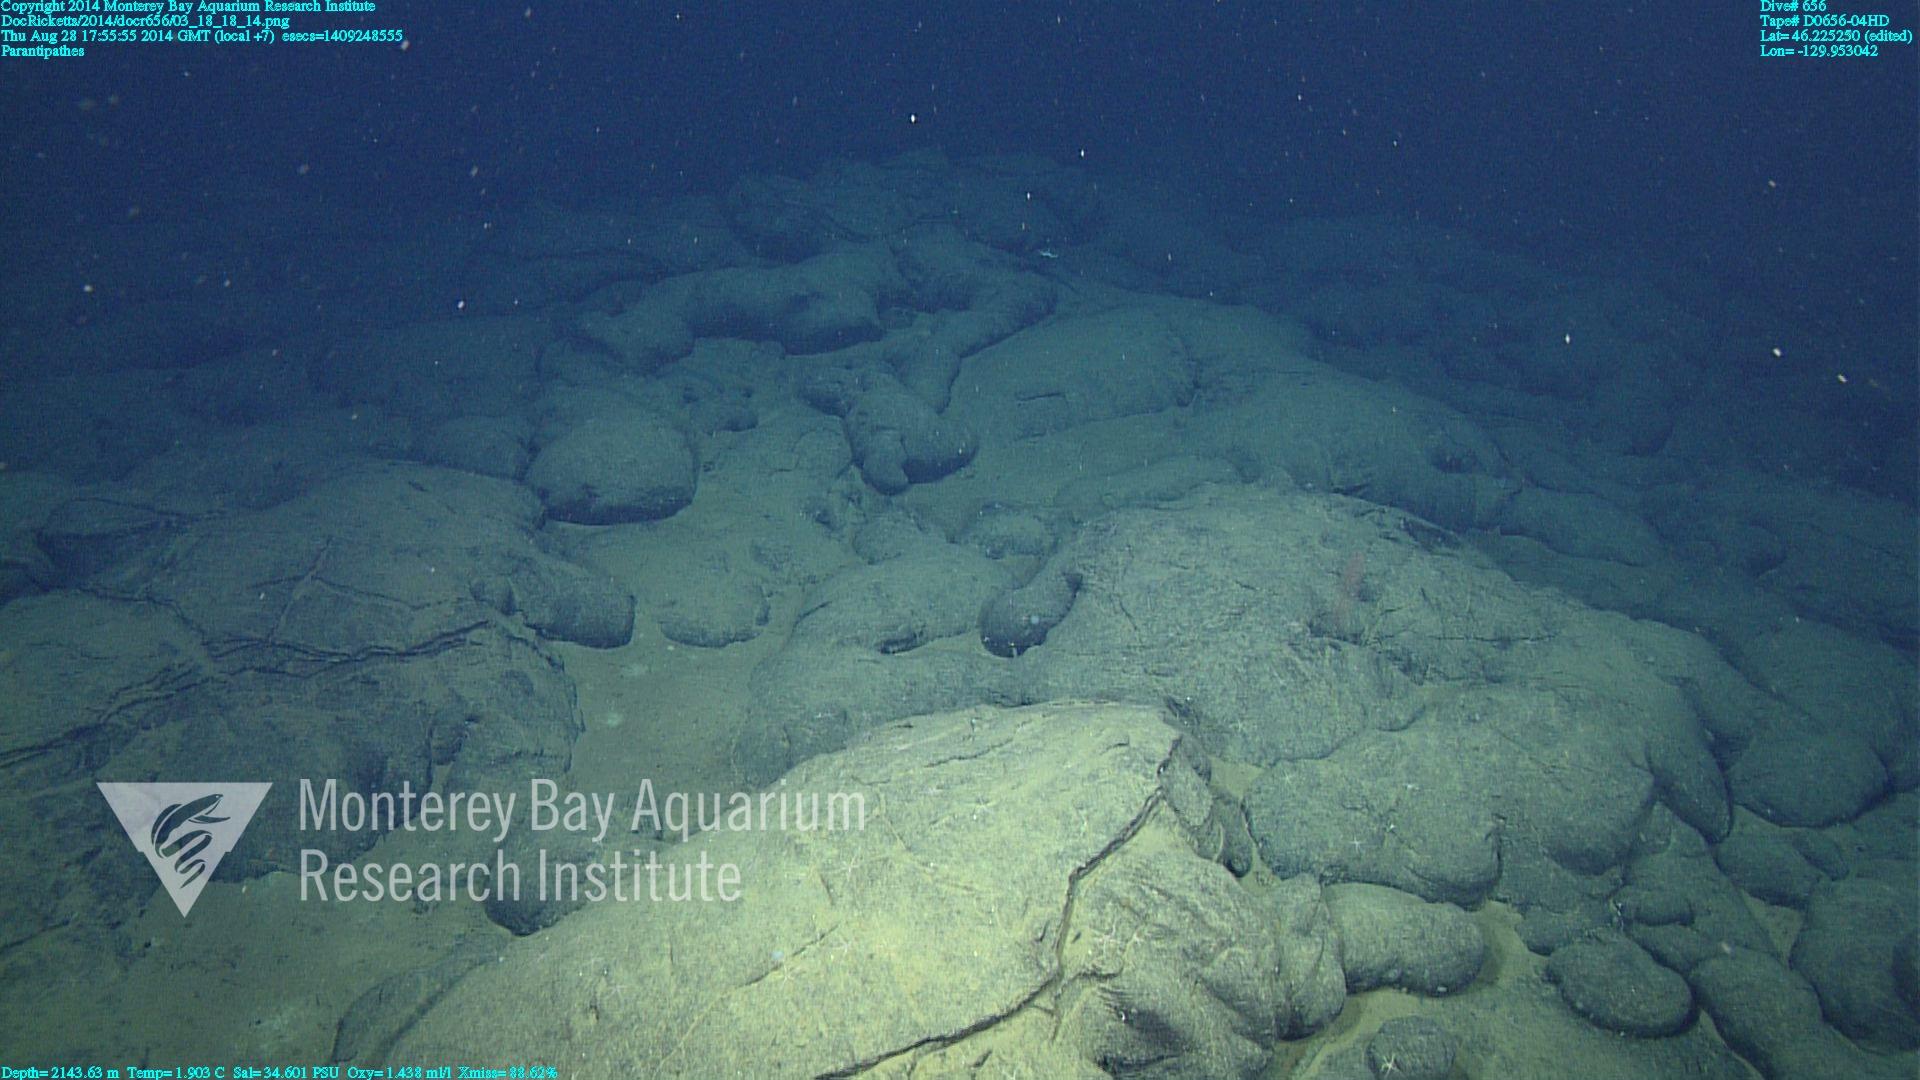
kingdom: Animalia
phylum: Cnidaria
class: Anthozoa
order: Antipatharia
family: Schizopathidae
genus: Parantipathes
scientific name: Parantipathes
